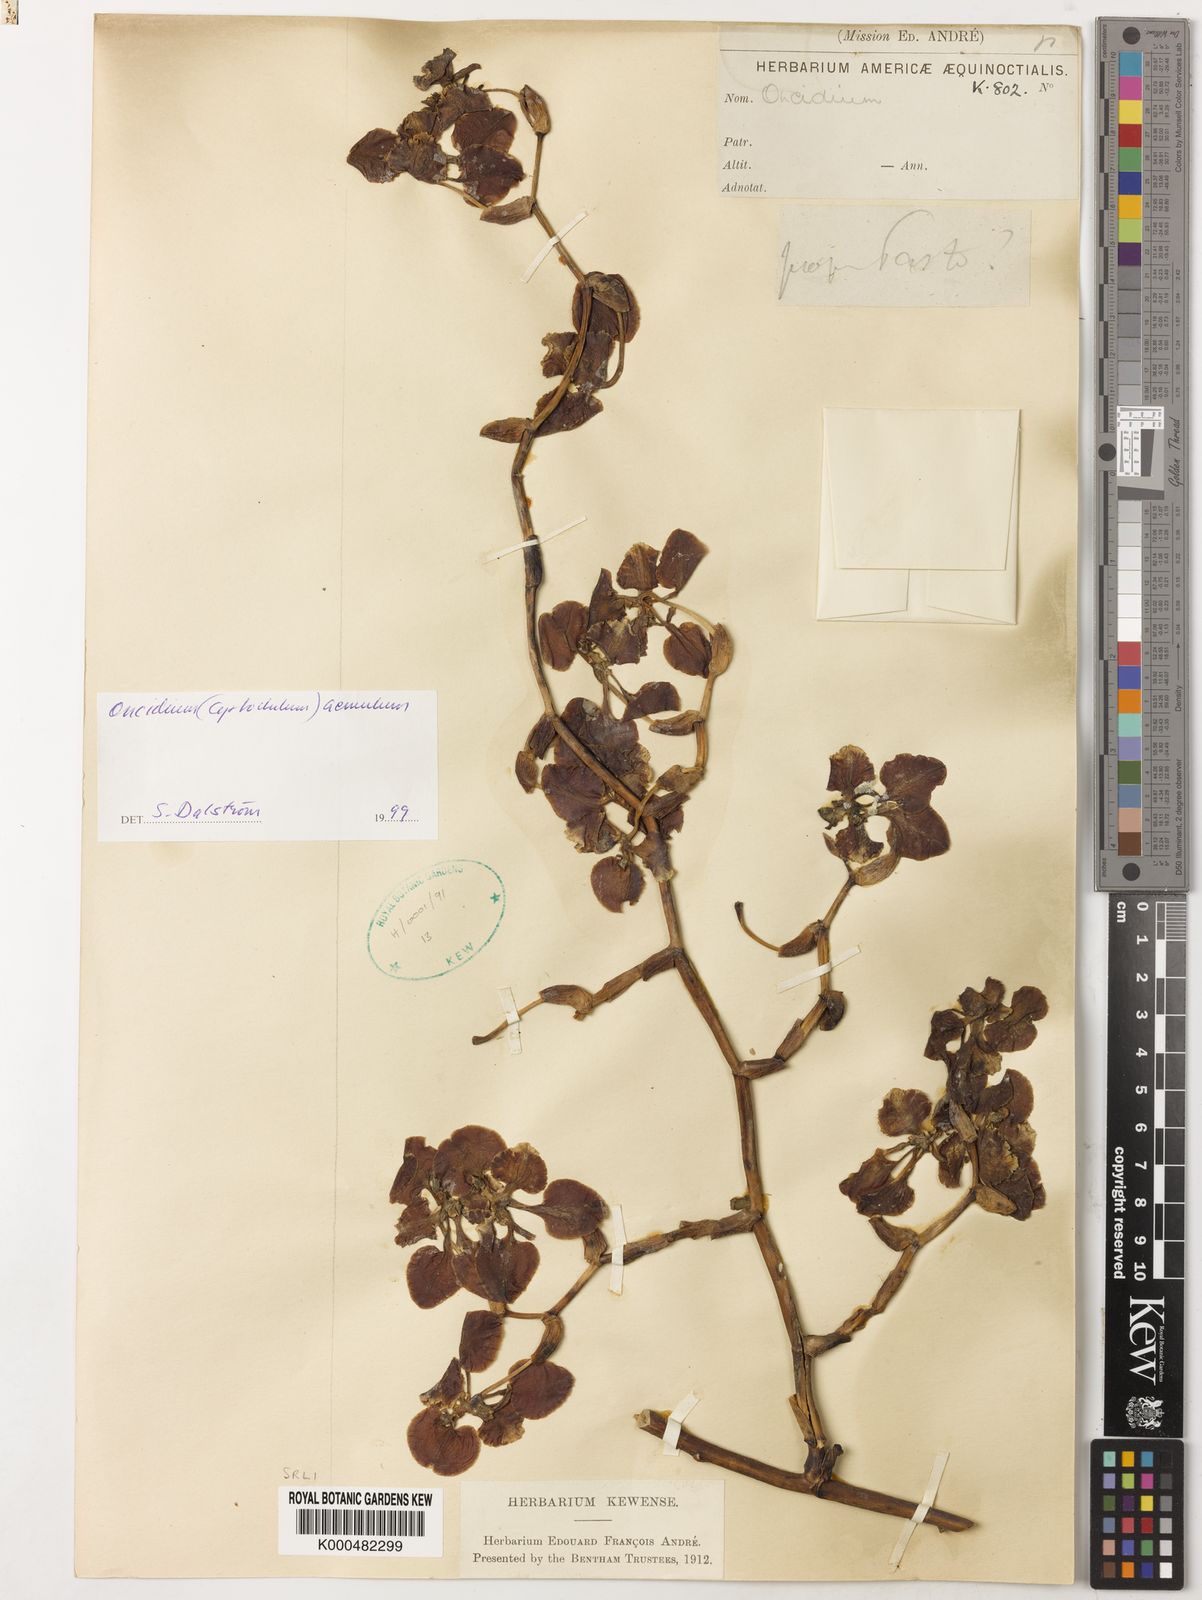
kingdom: Plantae
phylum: Tracheophyta
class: Liliopsida
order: Asparagales
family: Orchidaceae
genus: Cyrtochilum
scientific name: Cyrtochilum halteratum
